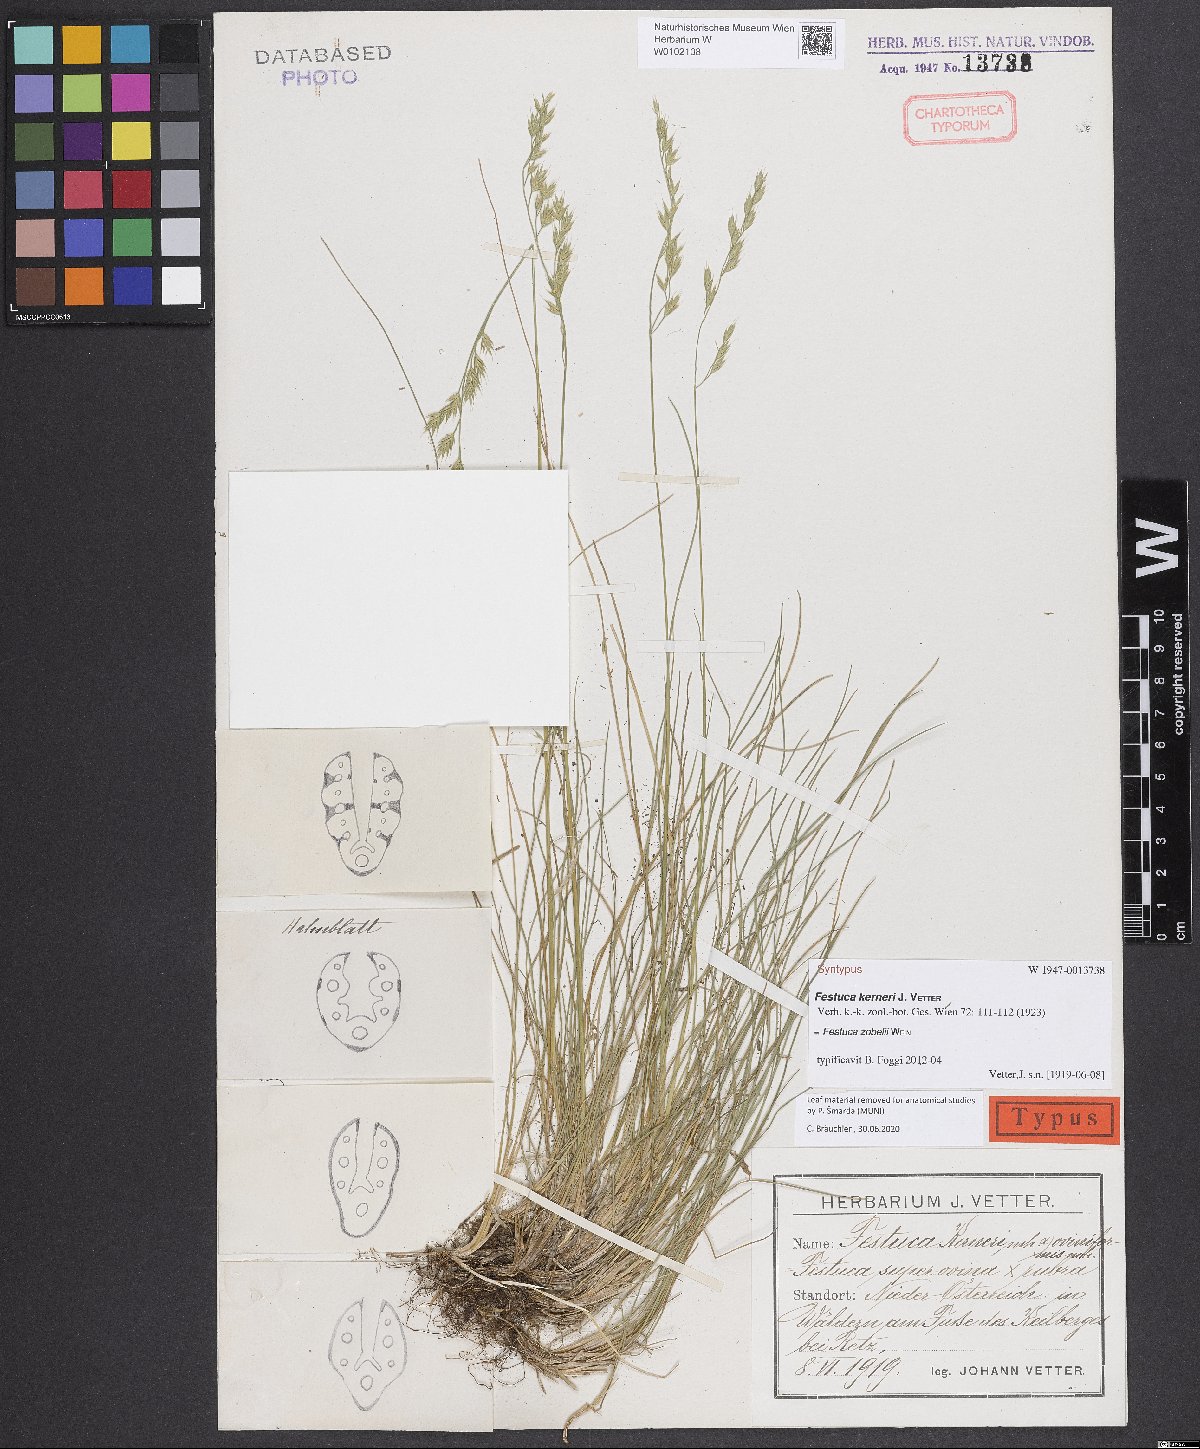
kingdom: Plantae
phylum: Tracheophyta
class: Liliopsida
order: Poales
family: Poaceae
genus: Festuca
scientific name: Festuca zobelii
